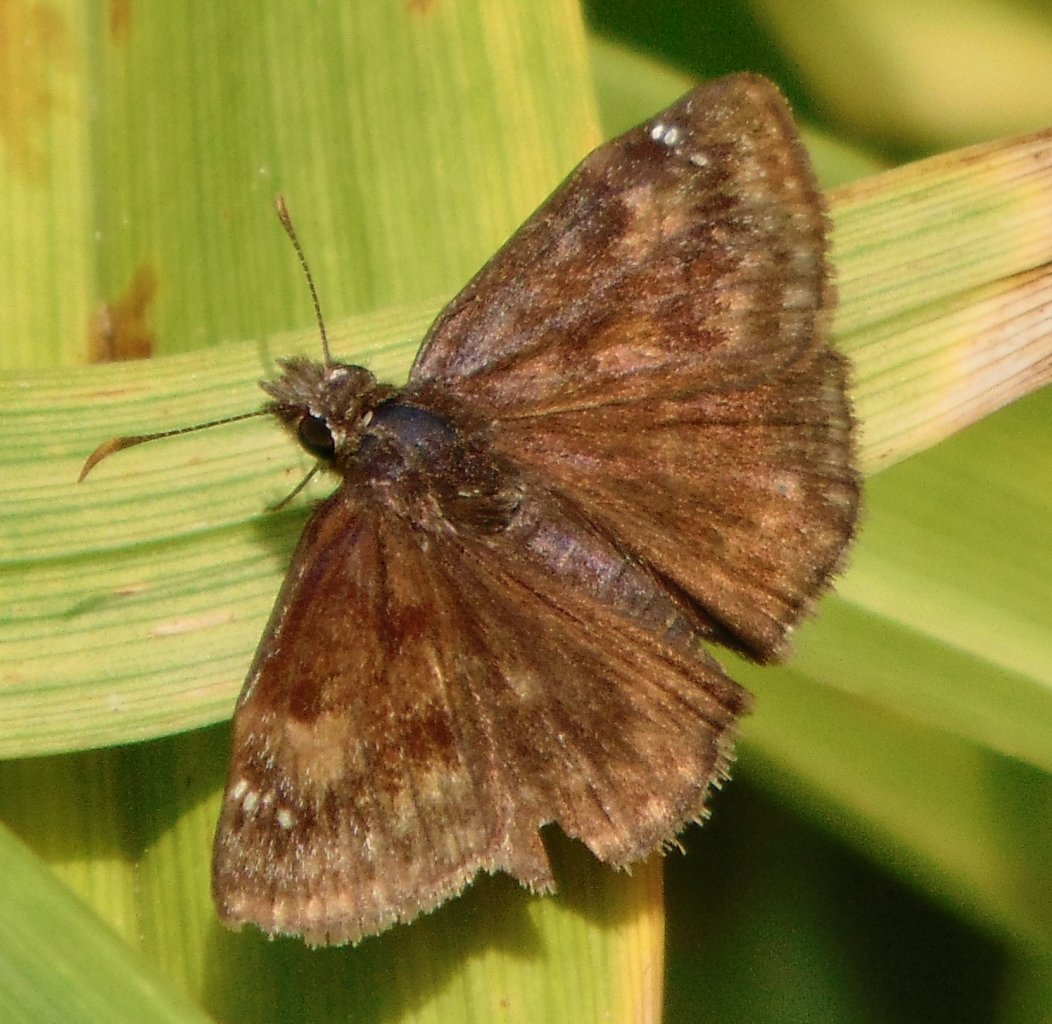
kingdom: Animalia
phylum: Arthropoda
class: Insecta
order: Lepidoptera
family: Hesperiidae
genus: Gesta
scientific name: Gesta
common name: Wild Indigo Duskywing
